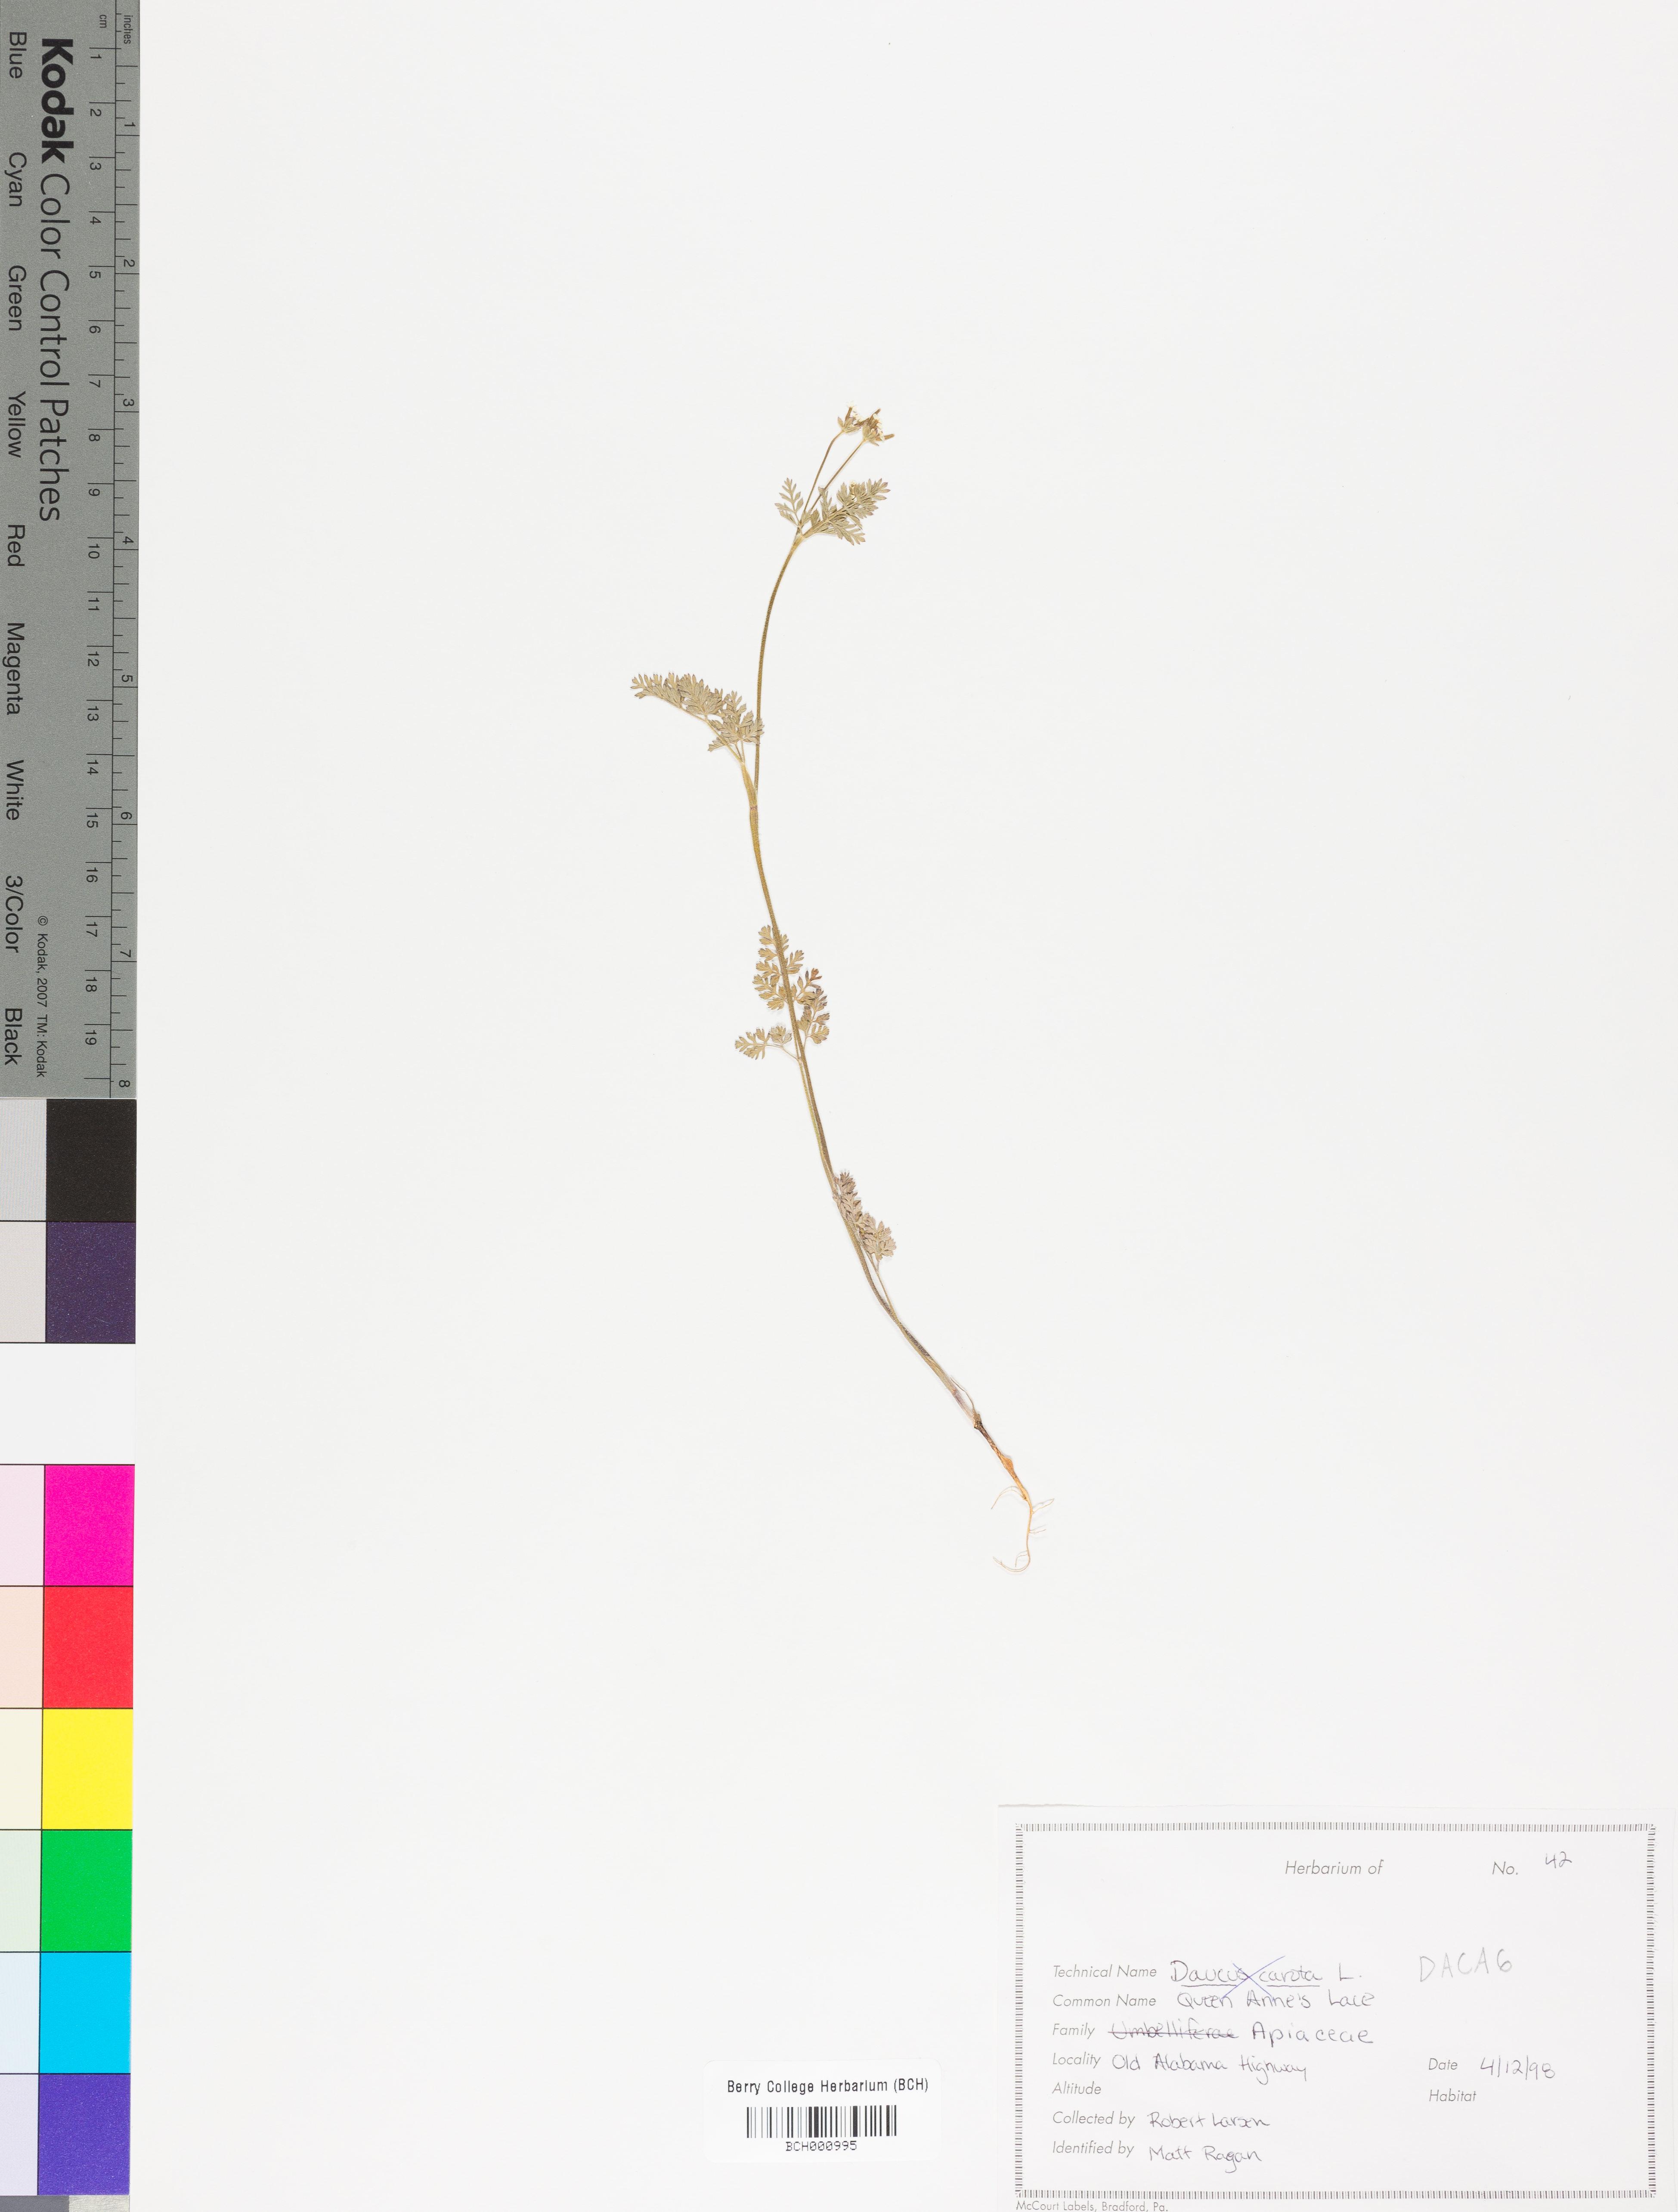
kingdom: Plantae
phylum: Tracheophyta
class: Magnoliopsida
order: Apiales
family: Apiaceae
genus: Daucus
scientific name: Daucus carota
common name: Wild carrot
